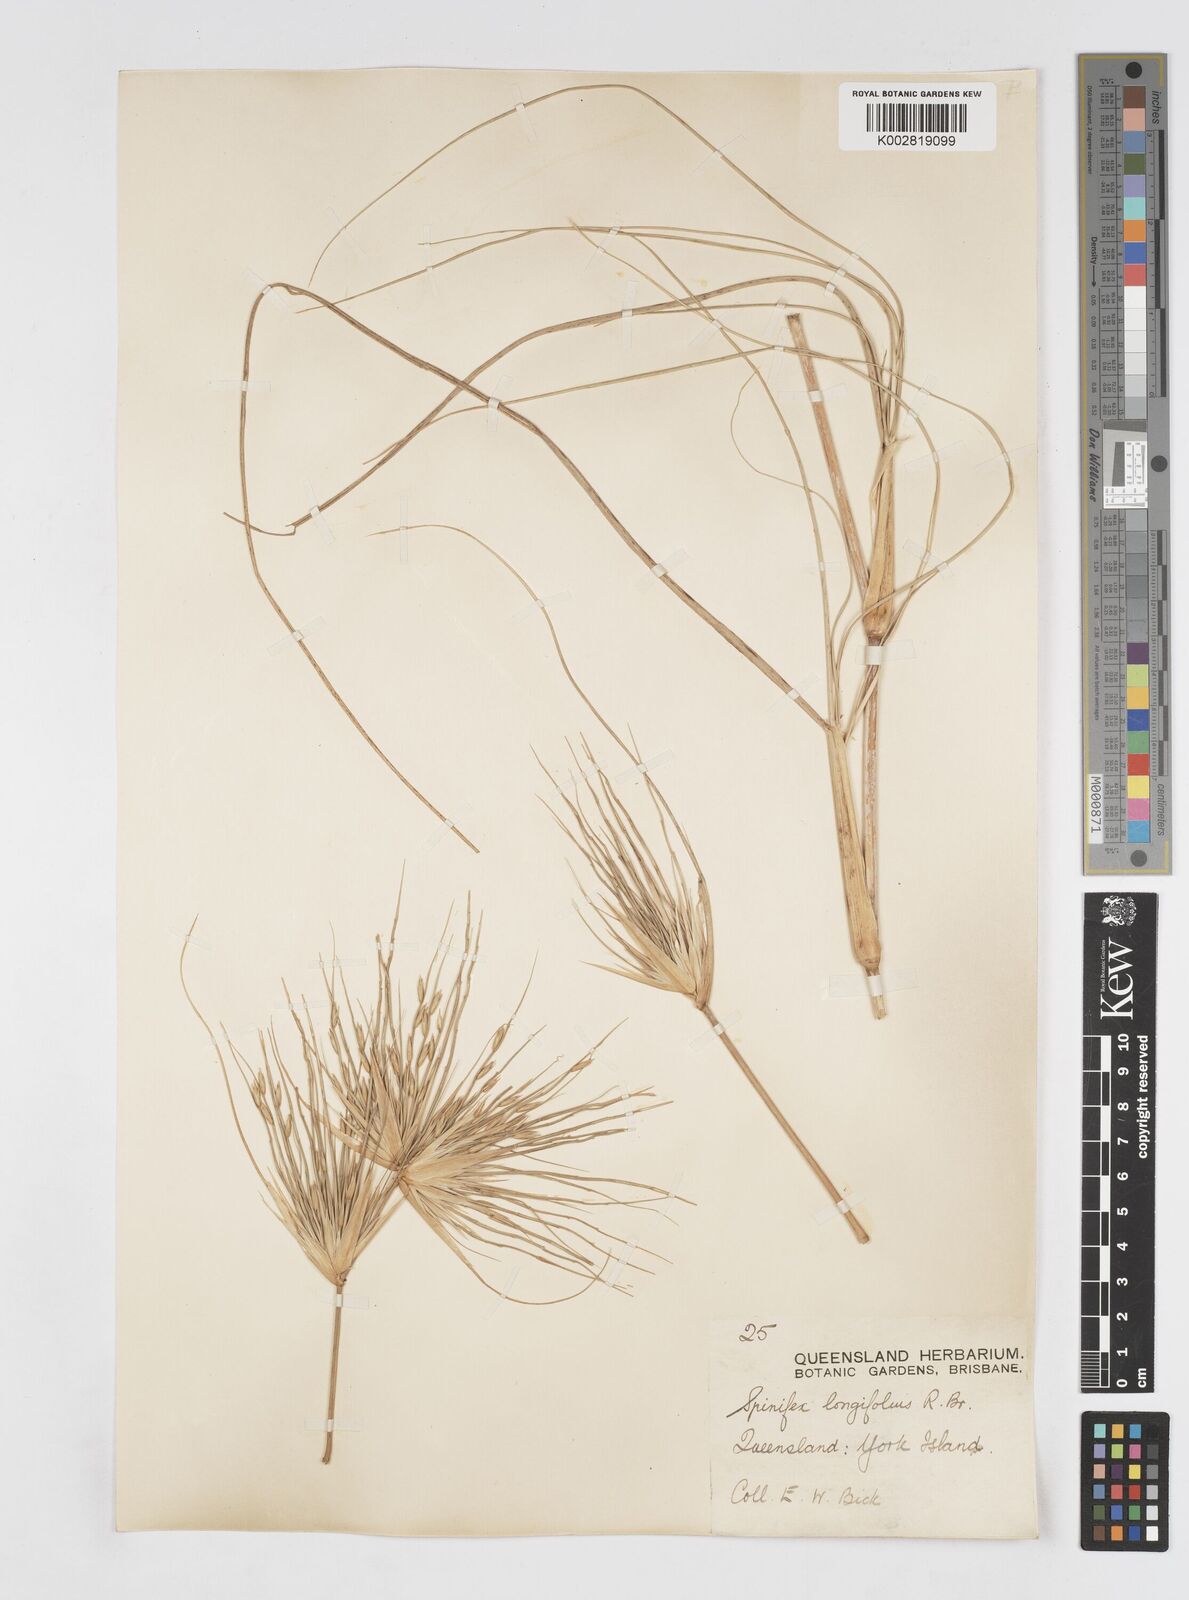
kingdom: Plantae
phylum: Tracheophyta
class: Liliopsida
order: Poales
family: Poaceae
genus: Spinifex
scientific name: Spinifex longifolius
